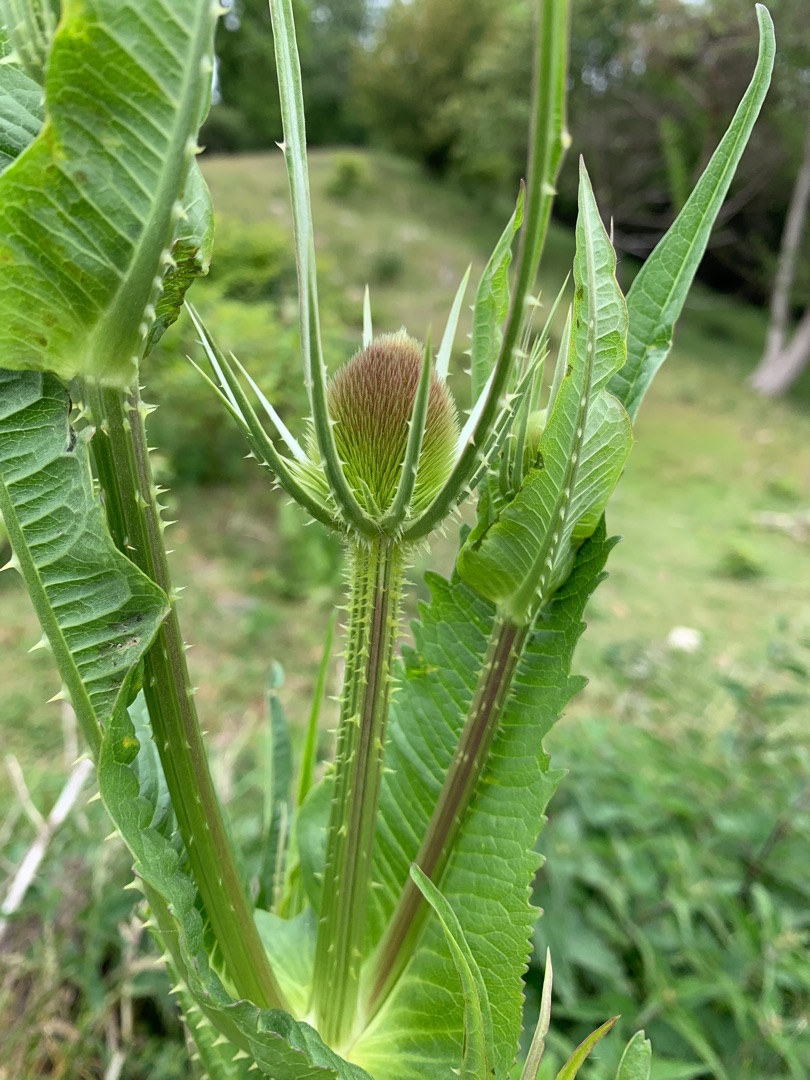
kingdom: Plantae
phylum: Tracheophyta
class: Magnoliopsida
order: Dipsacales
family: Caprifoliaceae
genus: Dipsacus
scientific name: Dipsacus fullonum
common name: Gærde-kartebolle
